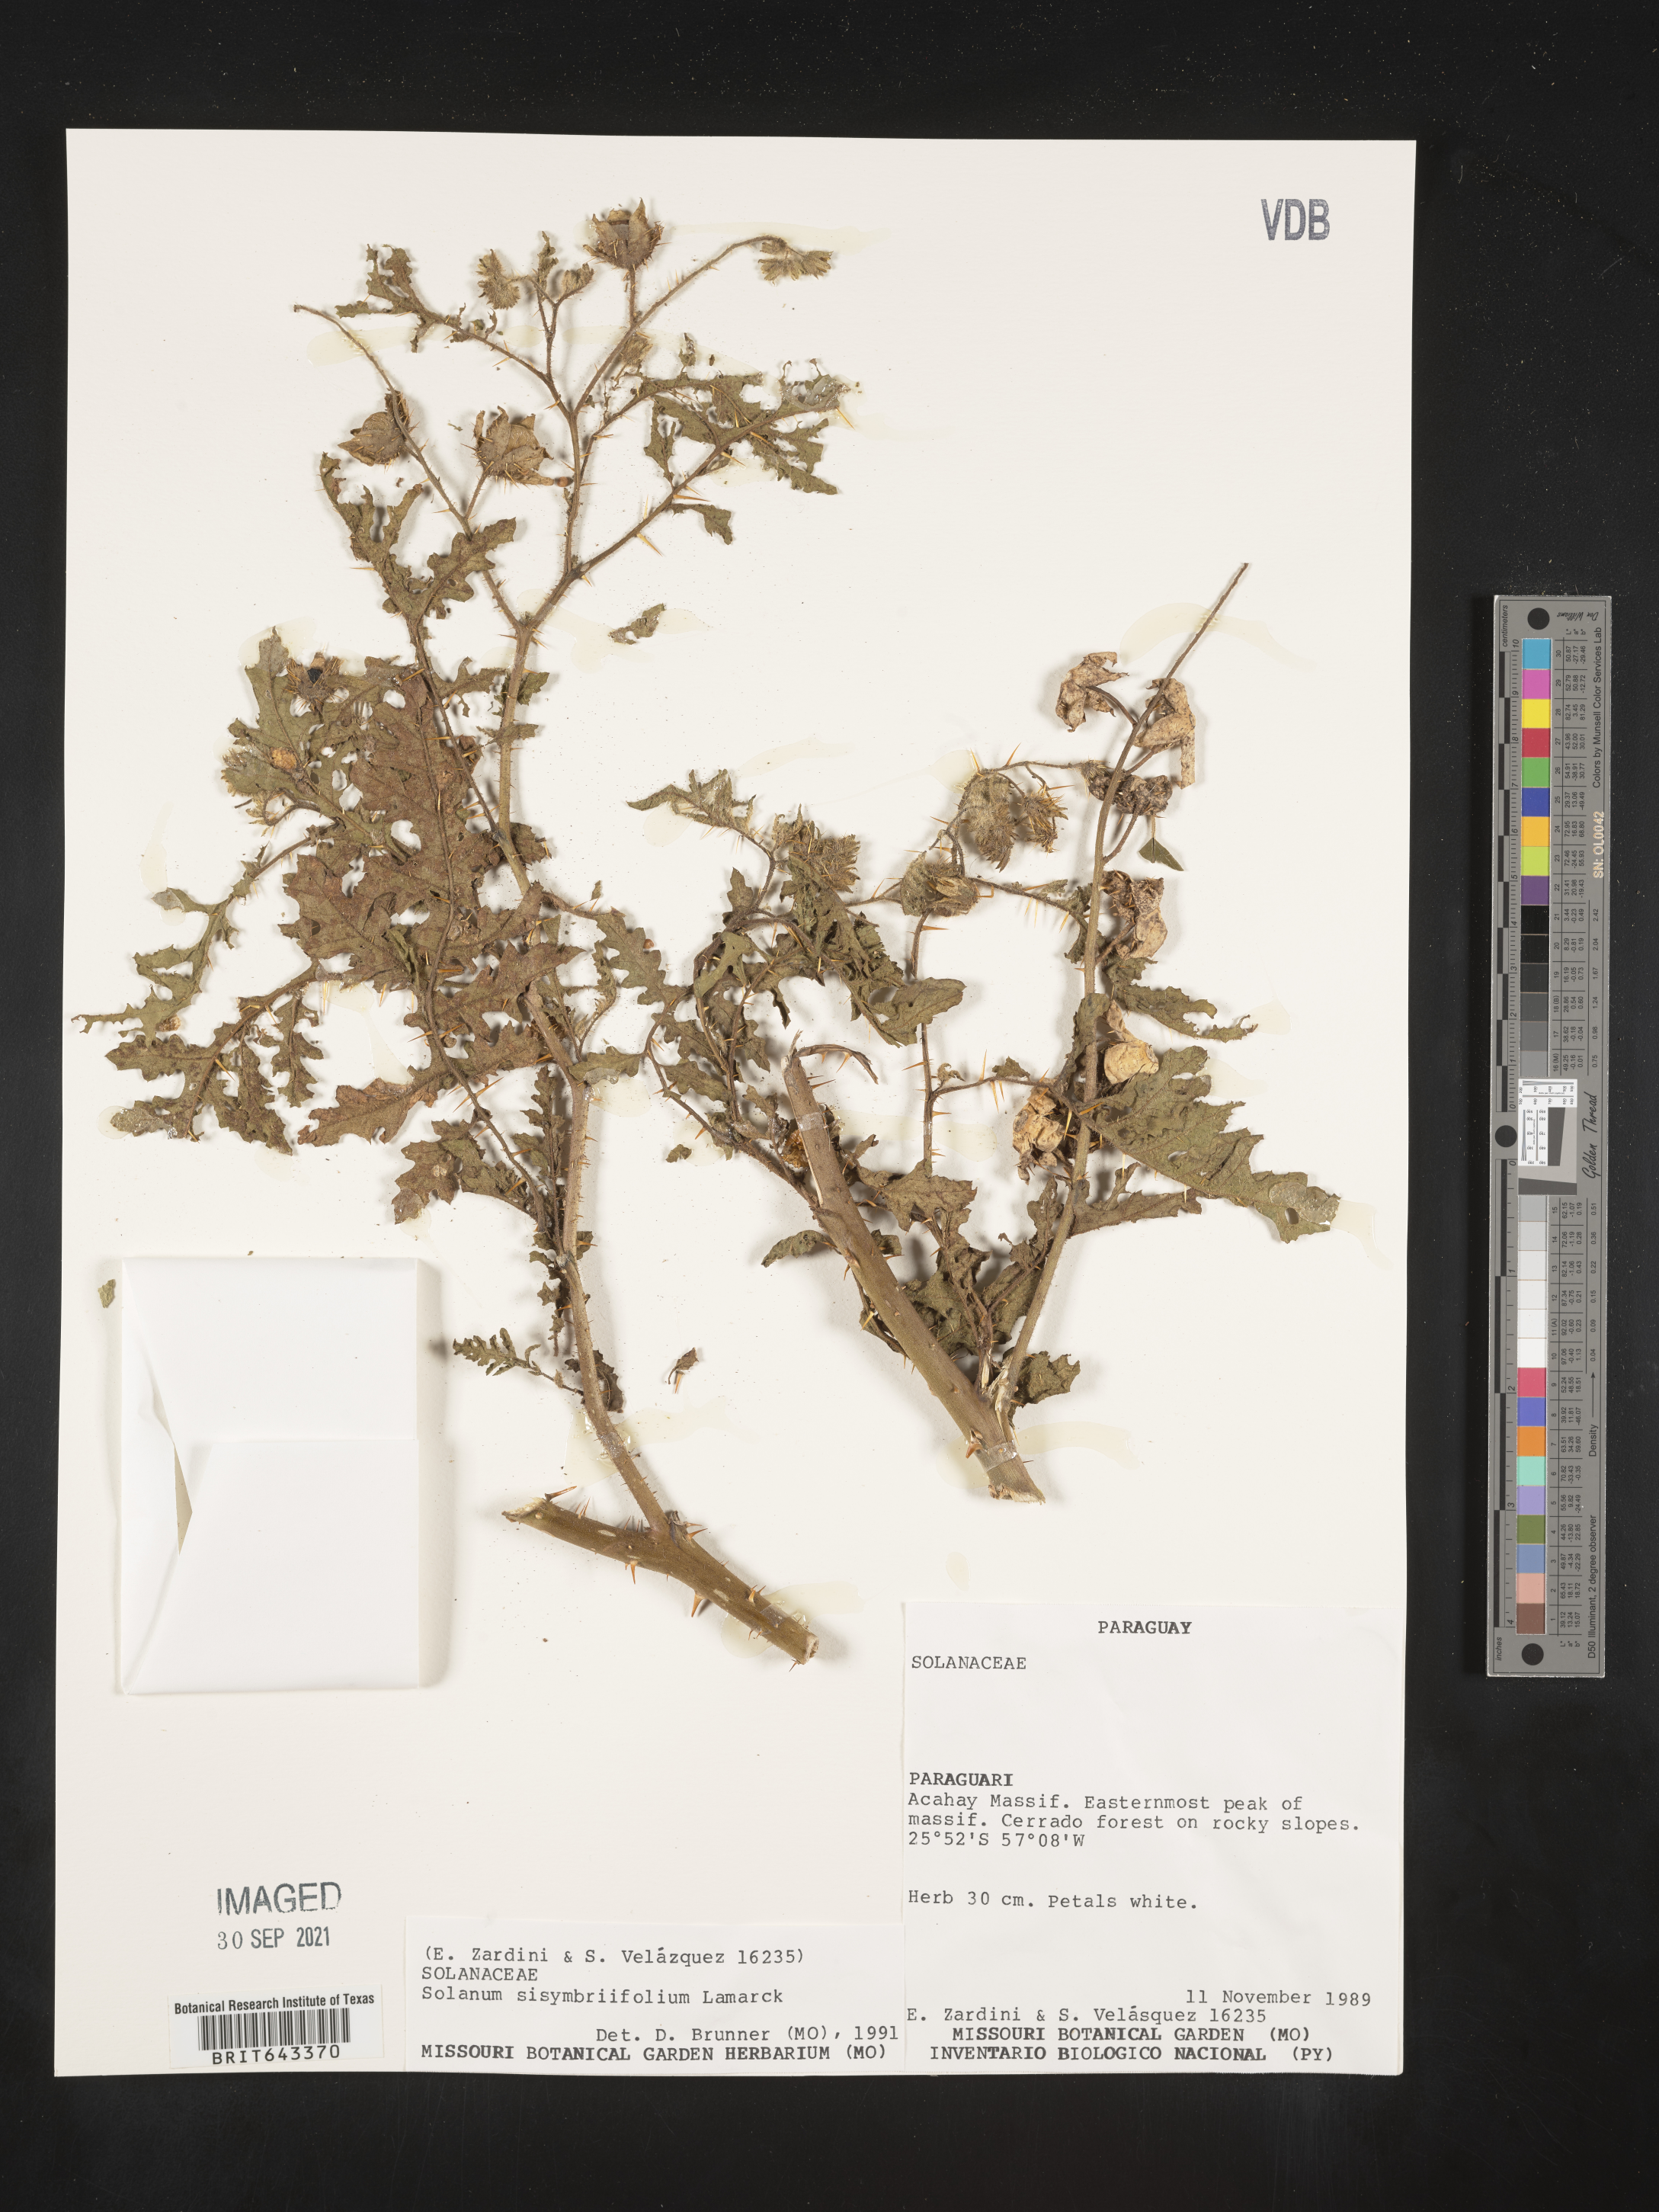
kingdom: Plantae
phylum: Tracheophyta
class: Magnoliopsida
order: Solanales
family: Solanaceae
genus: Solanum
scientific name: Solanum
